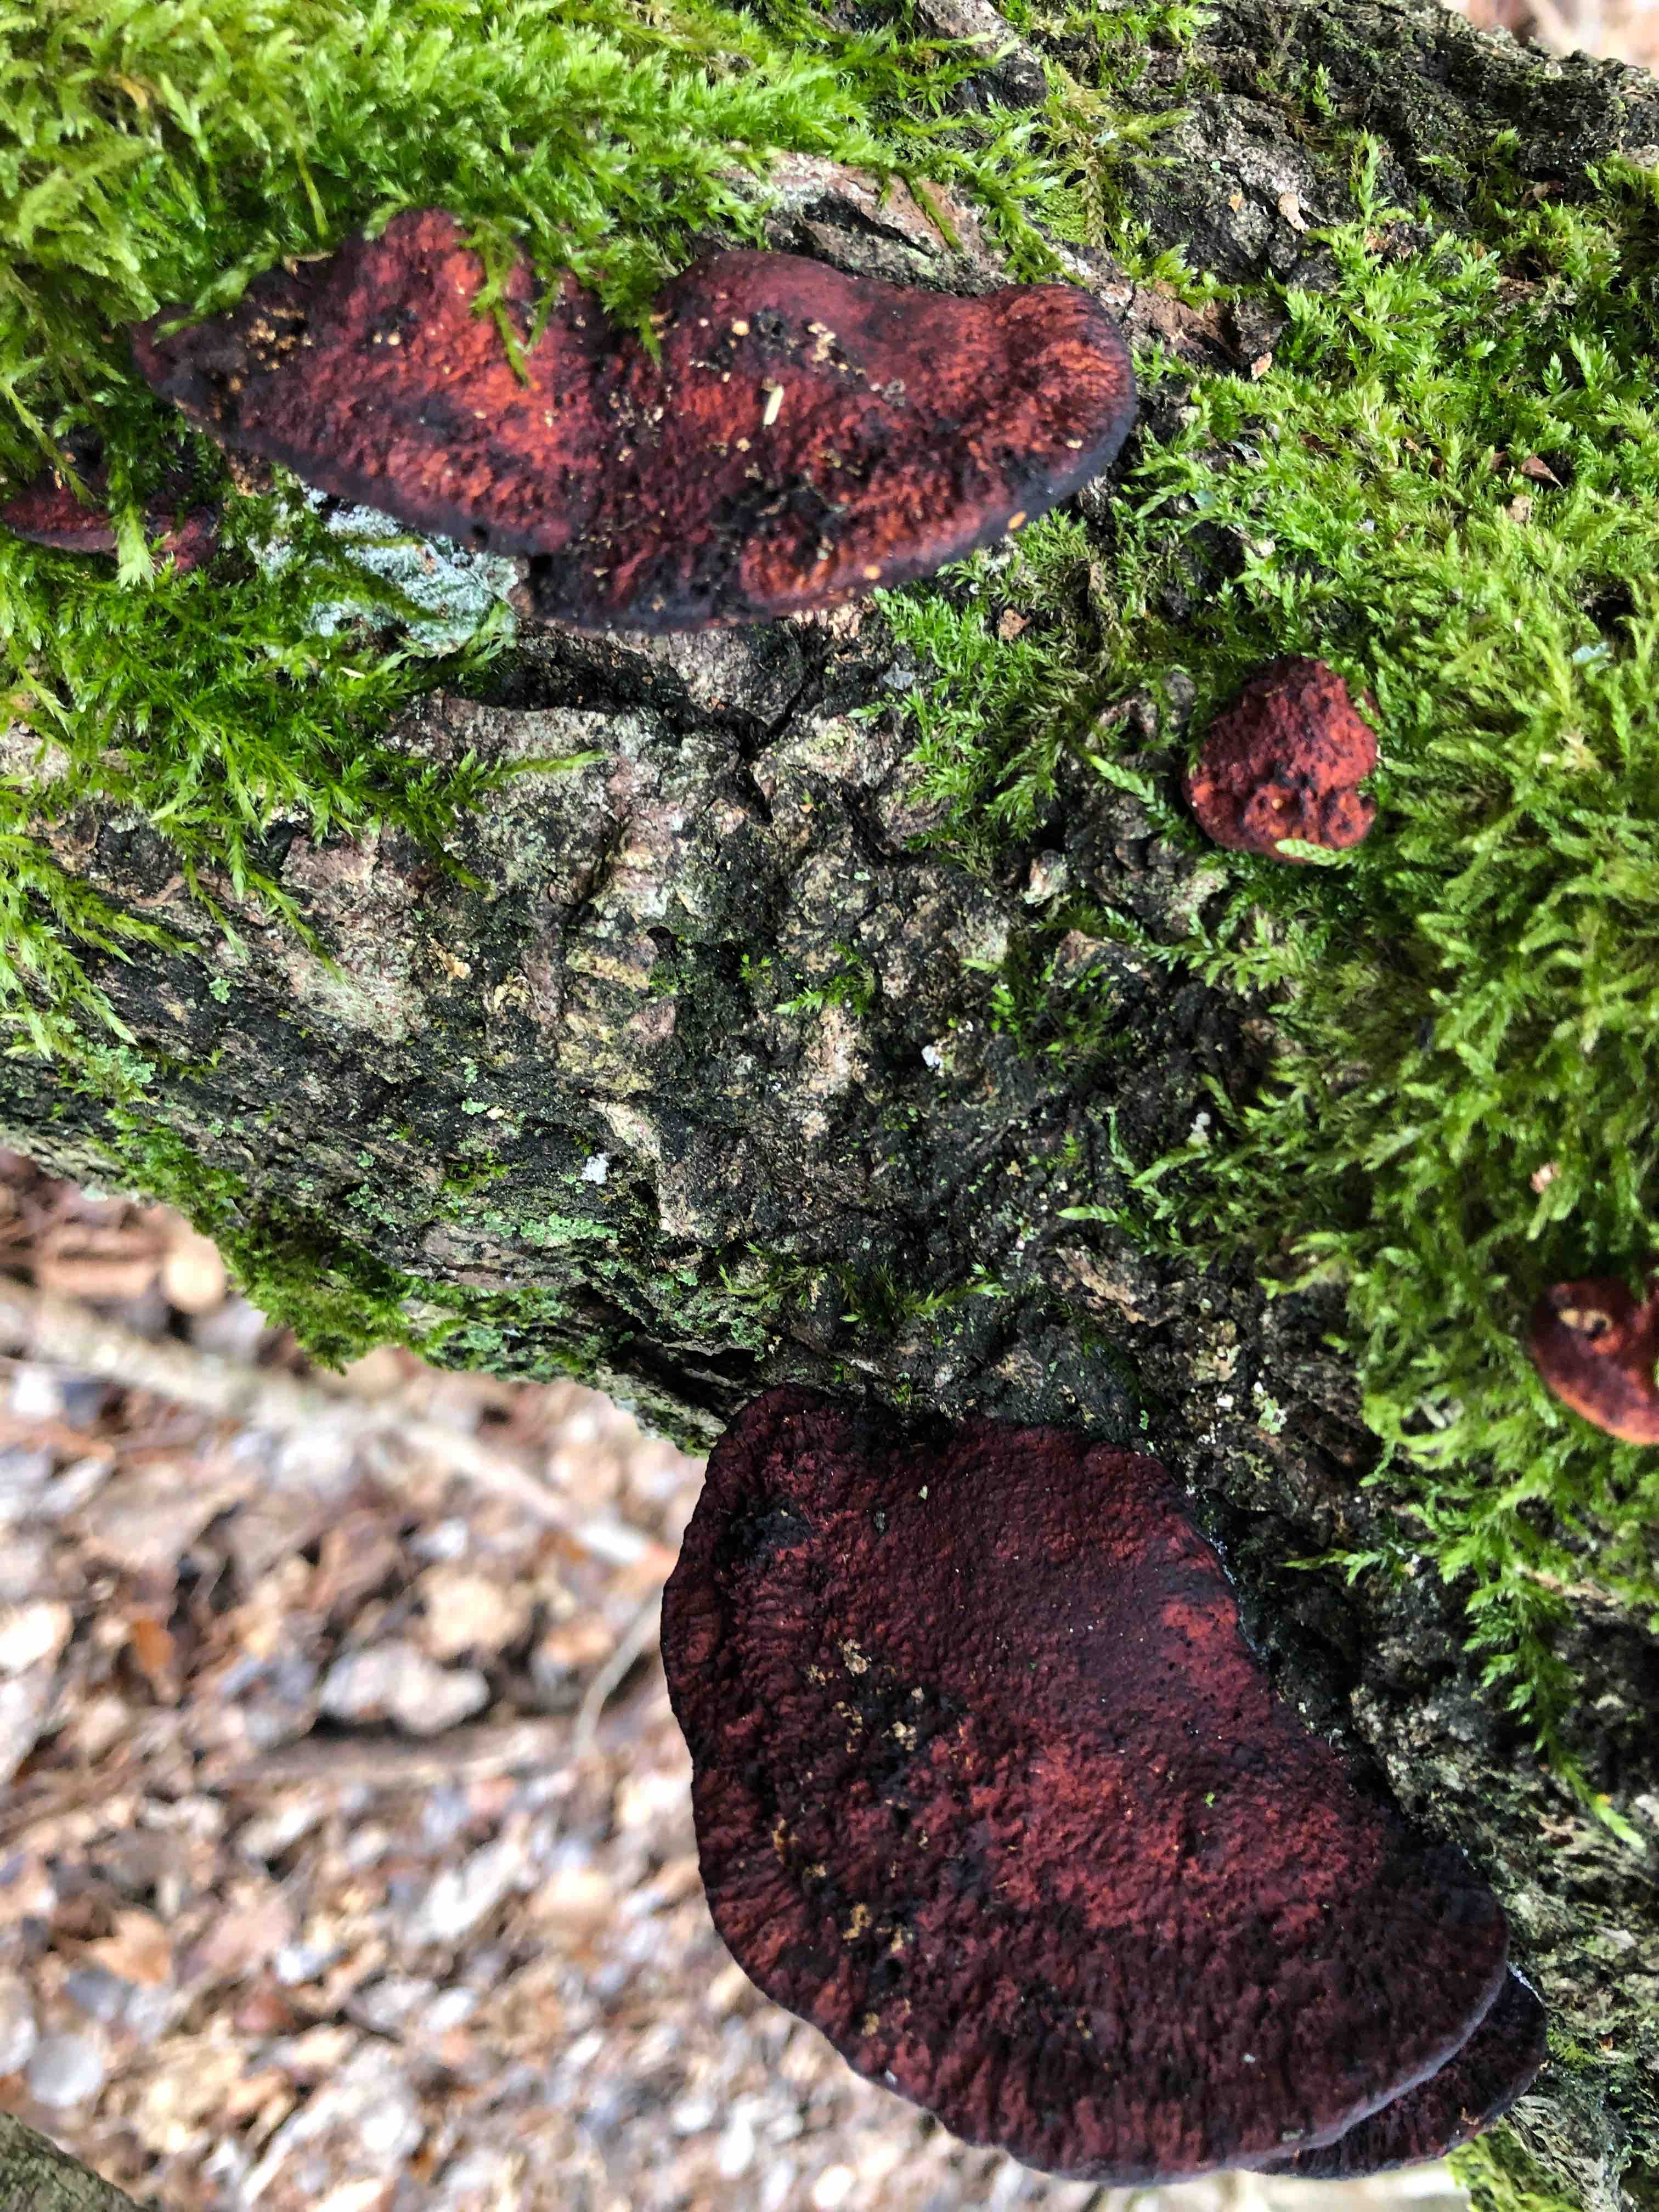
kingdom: Fungi
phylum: Basidiomycota
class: Agaricomycetes
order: Polyporales
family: Polyporaceae
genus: Daedaleopsis
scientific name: Daedaleopsis confragosa
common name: rødmende læderporesvamp
